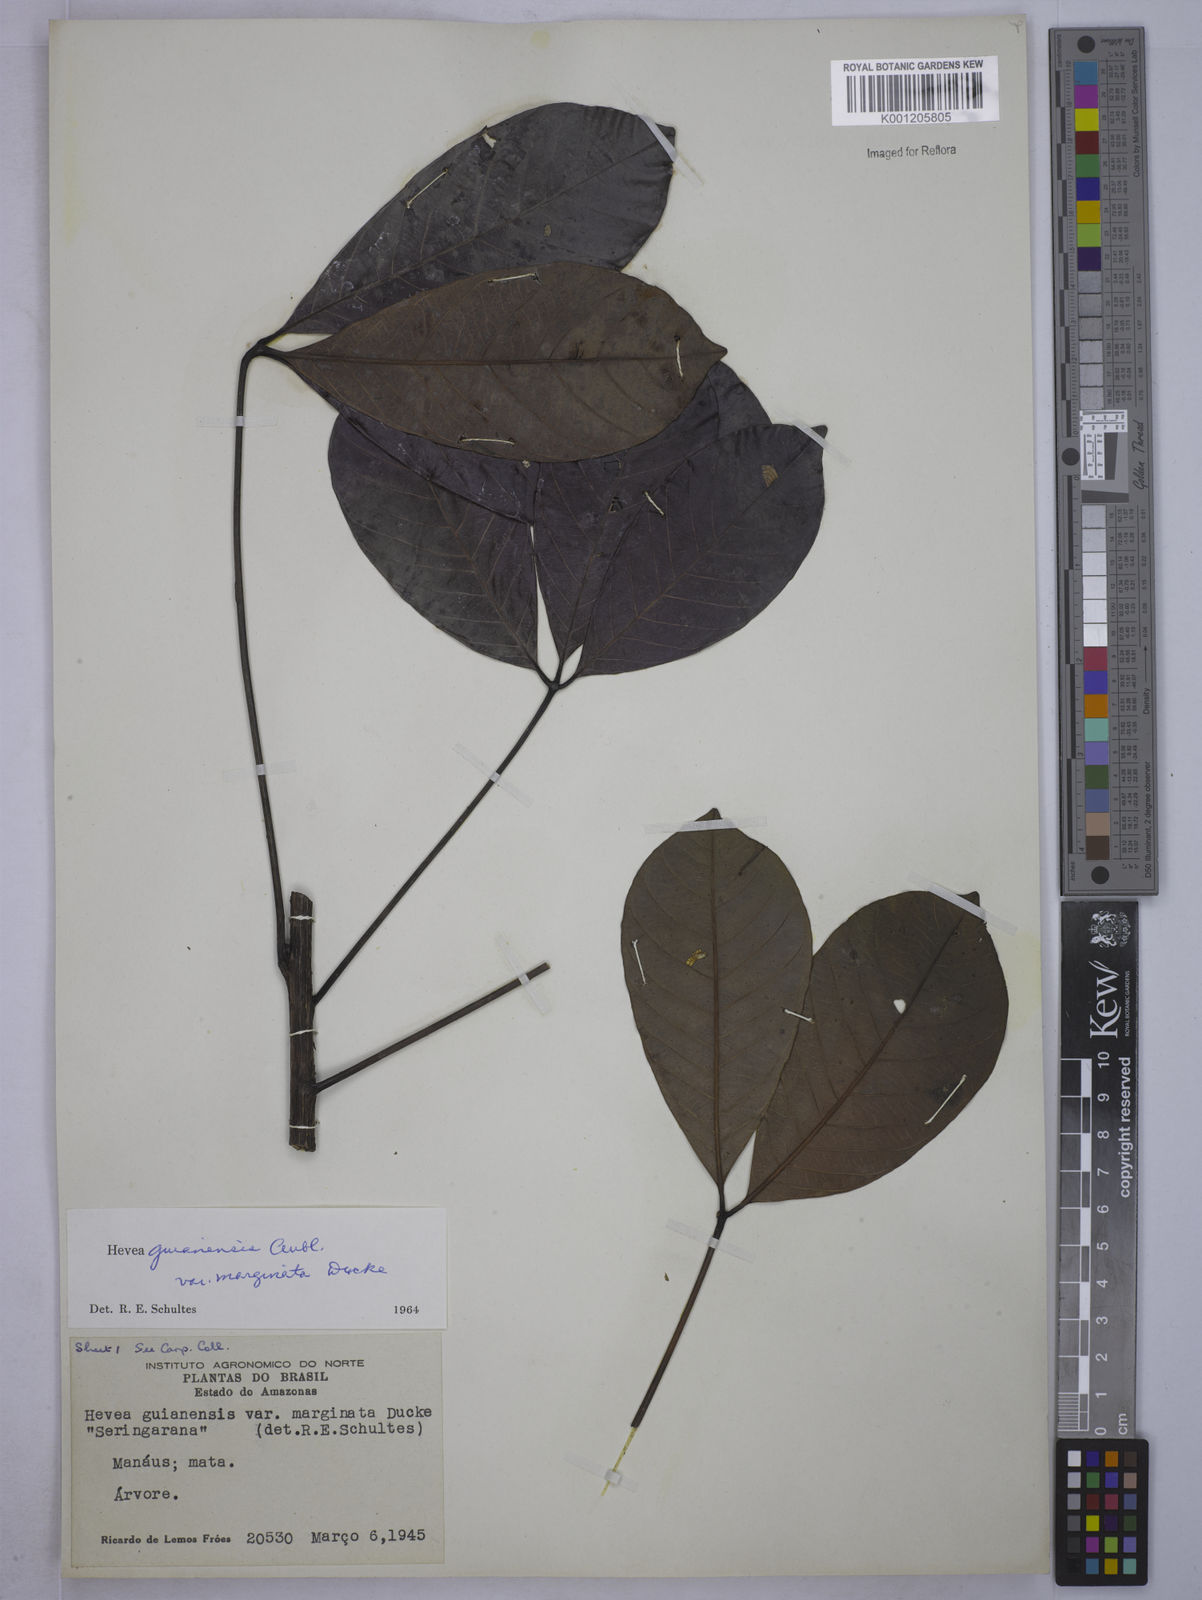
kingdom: Plantae
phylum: Tracheophyta
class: Magnoliopsida
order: Malpighiales
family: Euphorbiaceae
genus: Hevea
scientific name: Hevea guianensis
